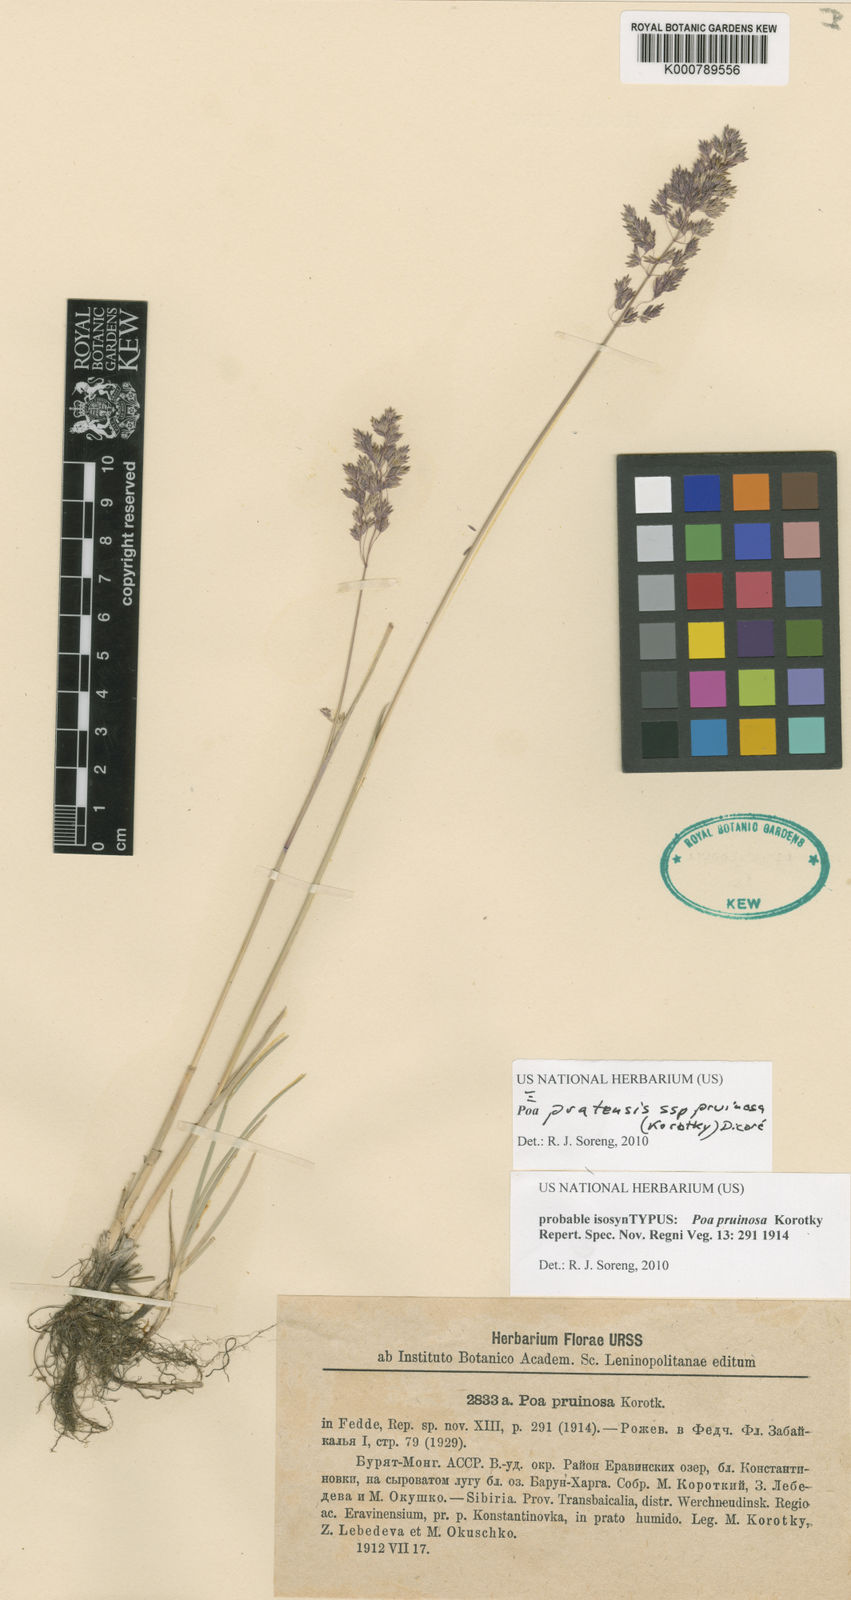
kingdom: Plantae
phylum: Tracheophyta
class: Liliopsida
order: Poales
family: Poaceae
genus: Poa
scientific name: Poa tianschanica
